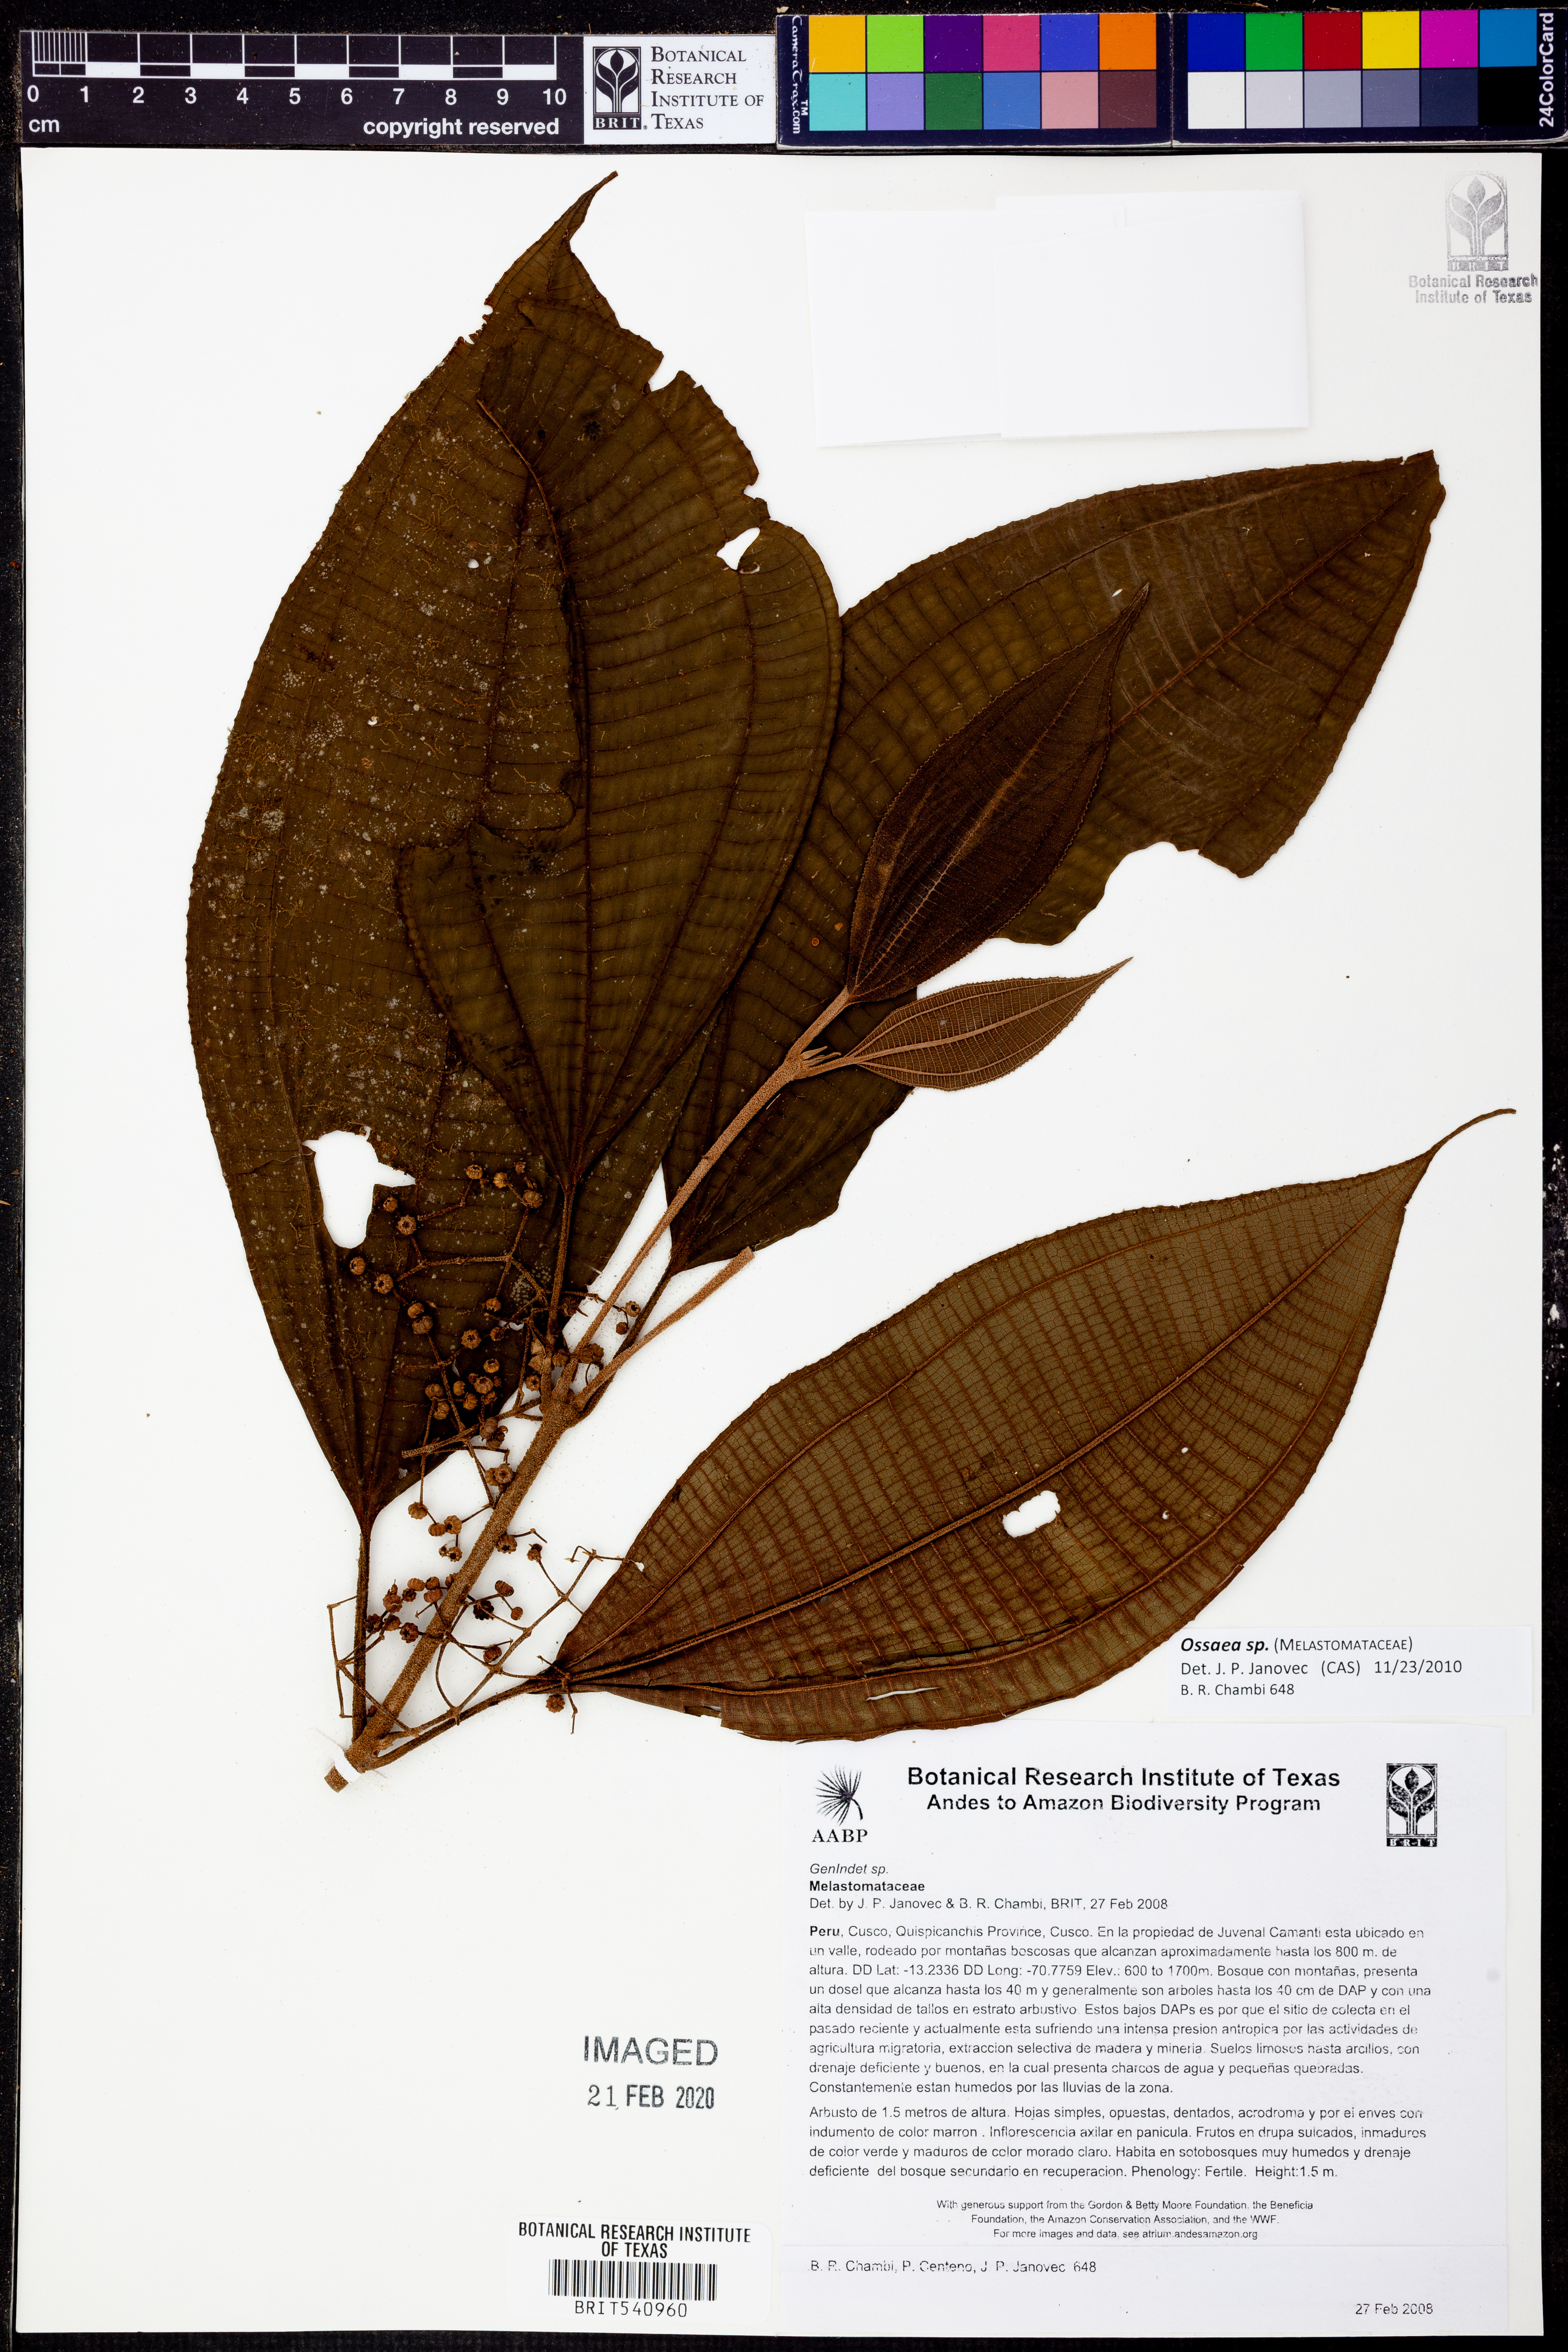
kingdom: Plantae
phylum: Tracheophyta
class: Magnoliopsida
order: Myrtales
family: Melastomataceae
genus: Ossaea
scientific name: Ossaea
